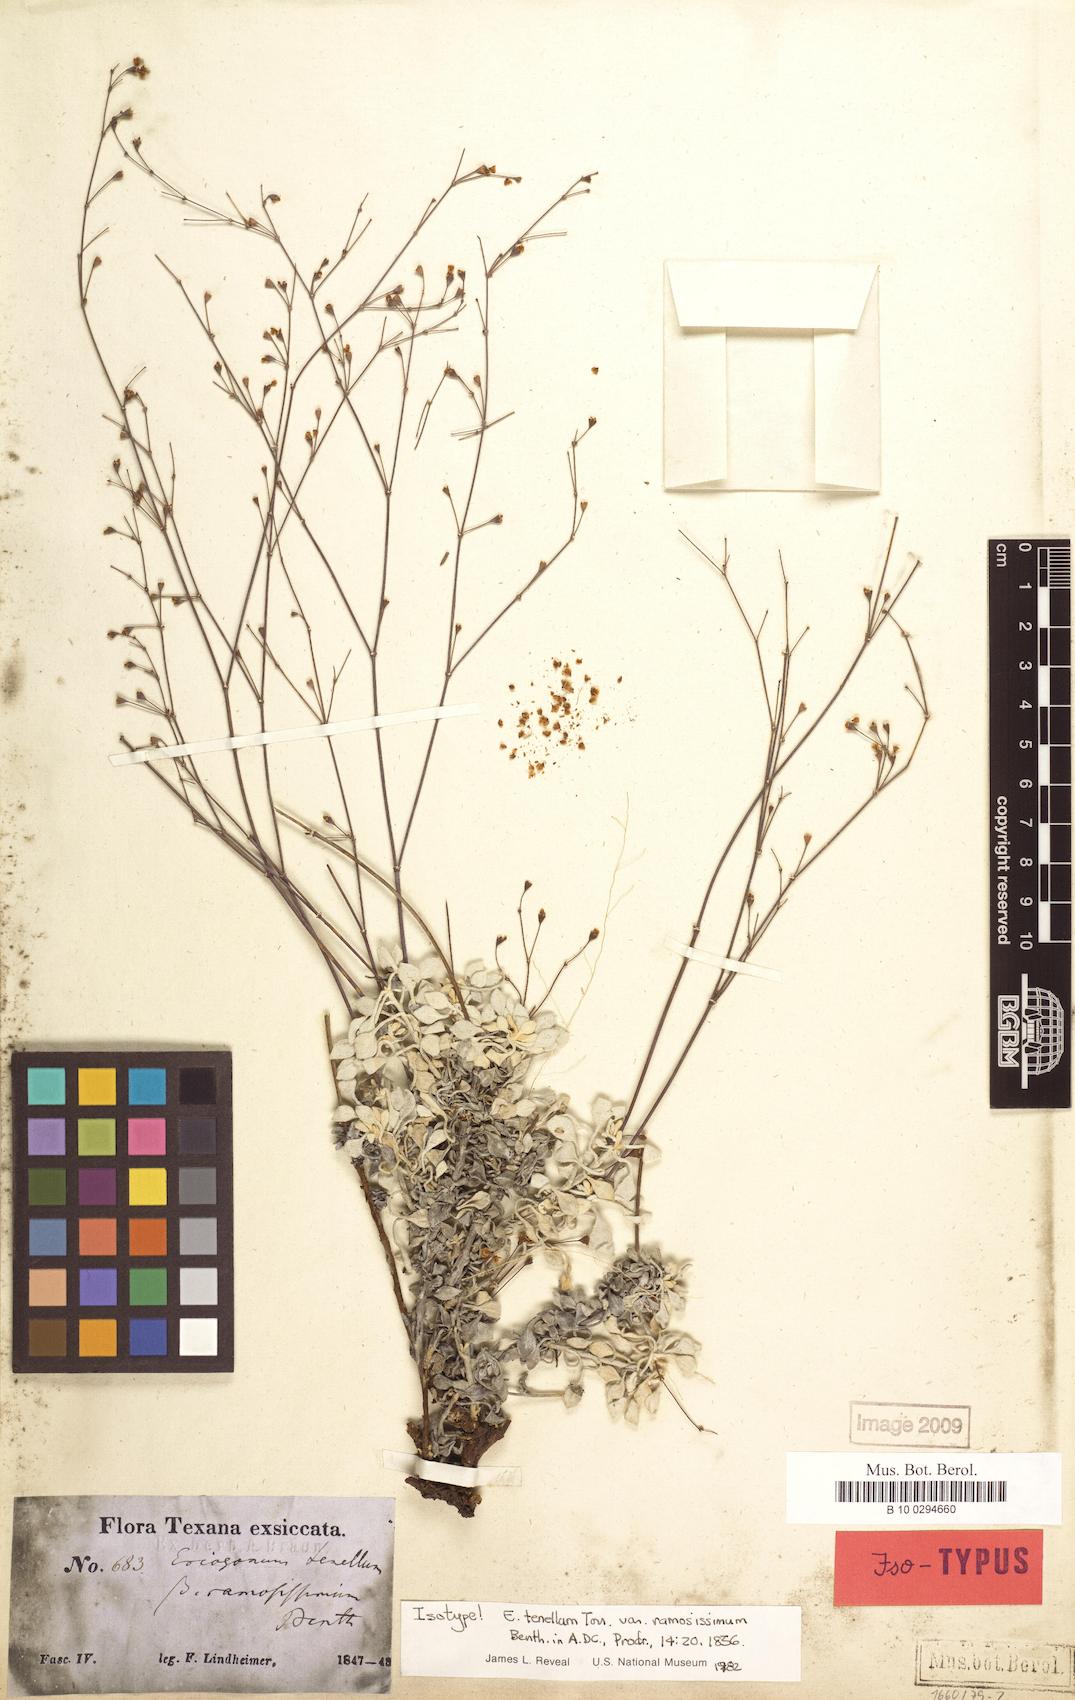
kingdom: Plantae
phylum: Tracheophyta
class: Magnoliopsida
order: Caryophyllales
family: Polygonaceae
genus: Eriogonum
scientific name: Eriogonum graniticum
